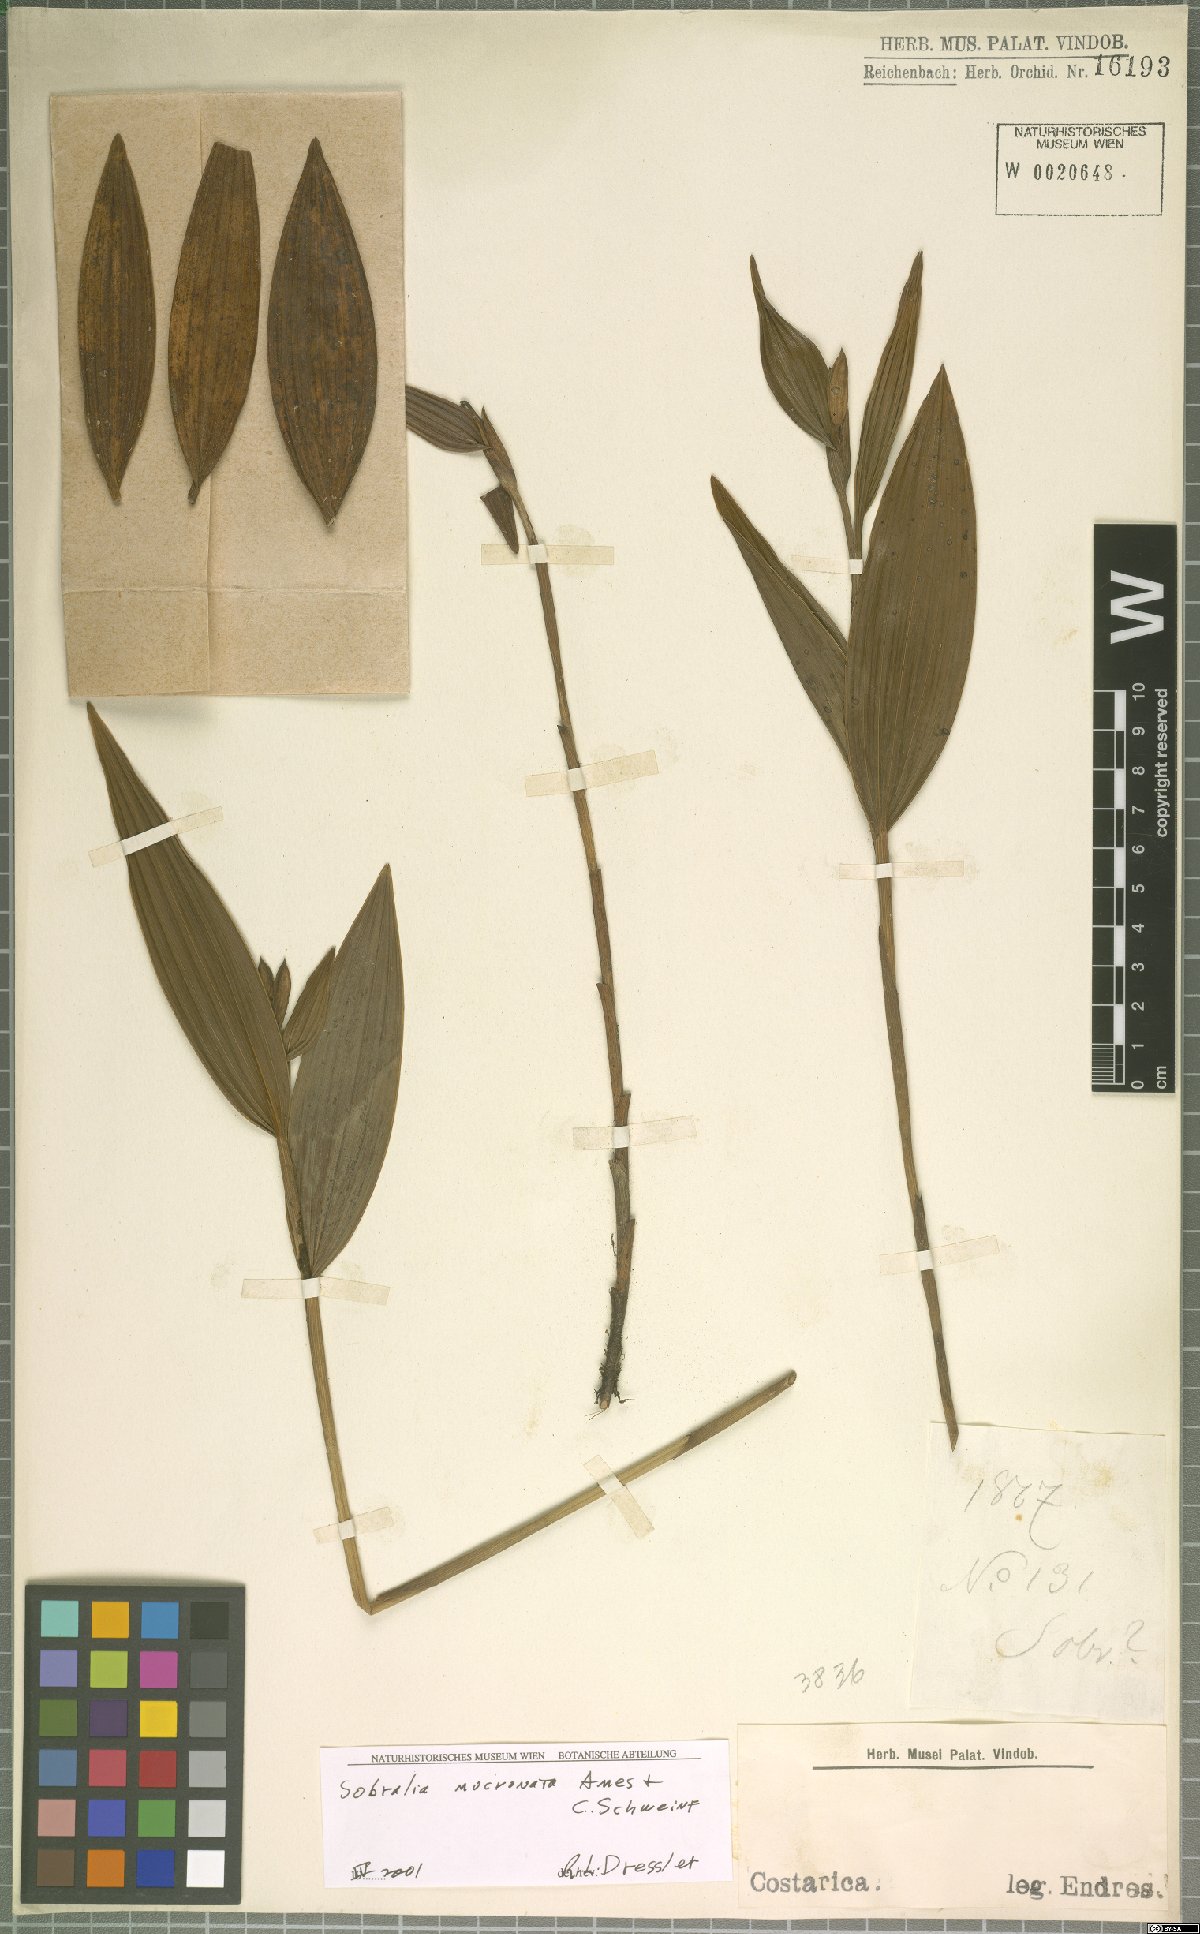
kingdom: Plantae
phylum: Tracheophyta
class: Liliopsida
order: Asparagales
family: Orchidaceae
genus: Sobralia
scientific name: Sobralia mucronata
